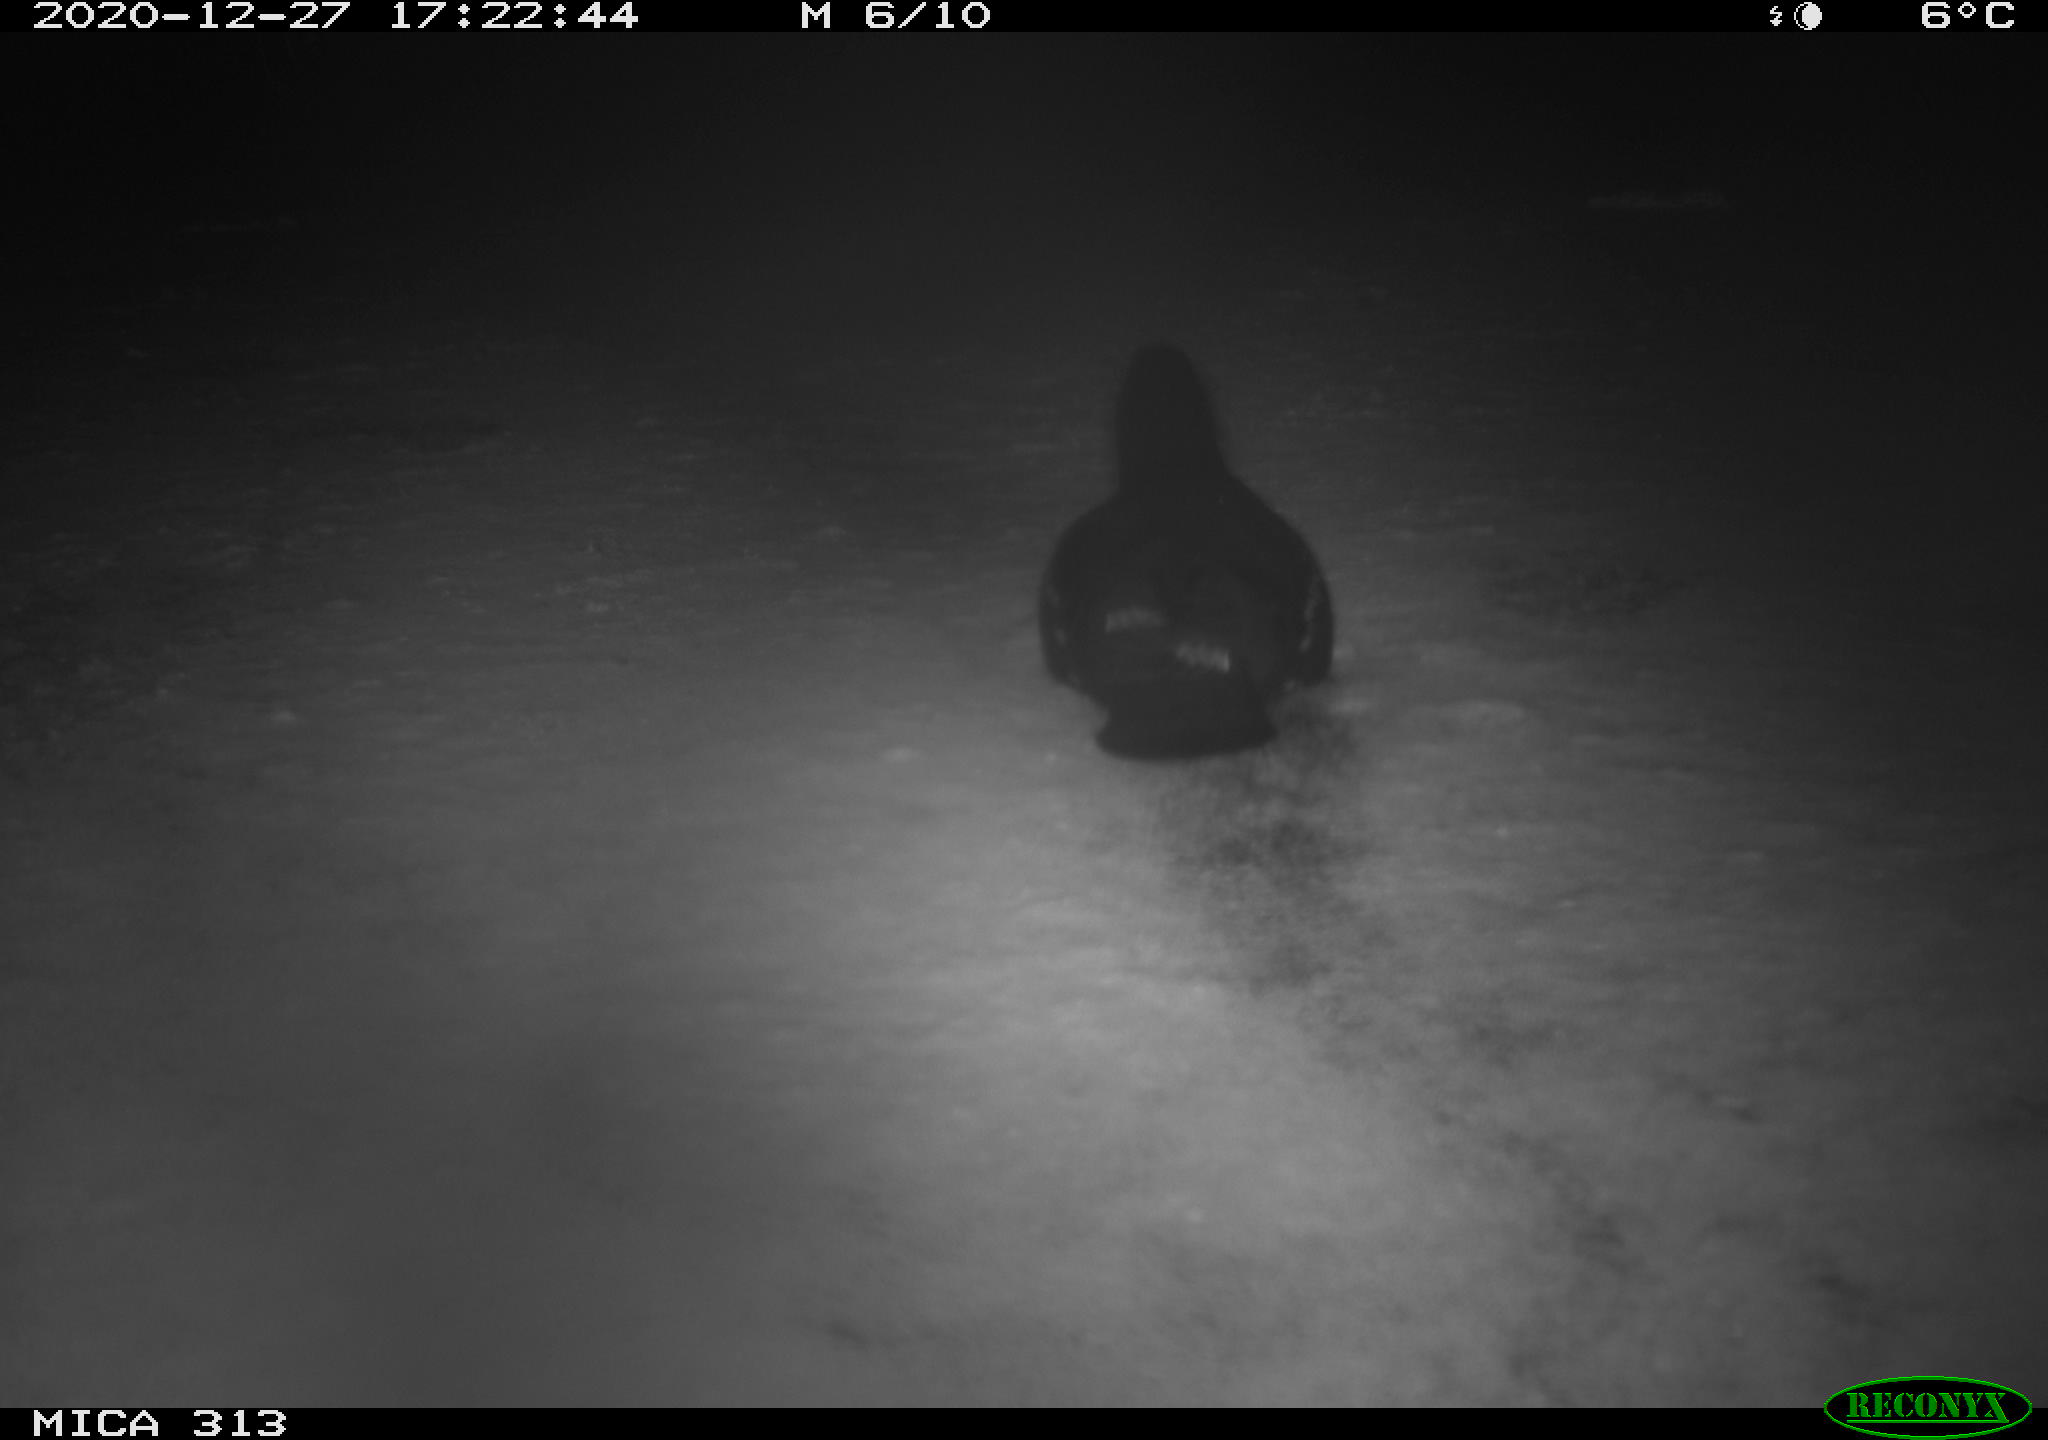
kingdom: Animalia
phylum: Chordata
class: Aves
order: Gruiformes
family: Rallidae
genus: Fulica
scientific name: Fulica atra
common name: Eurasian coot
